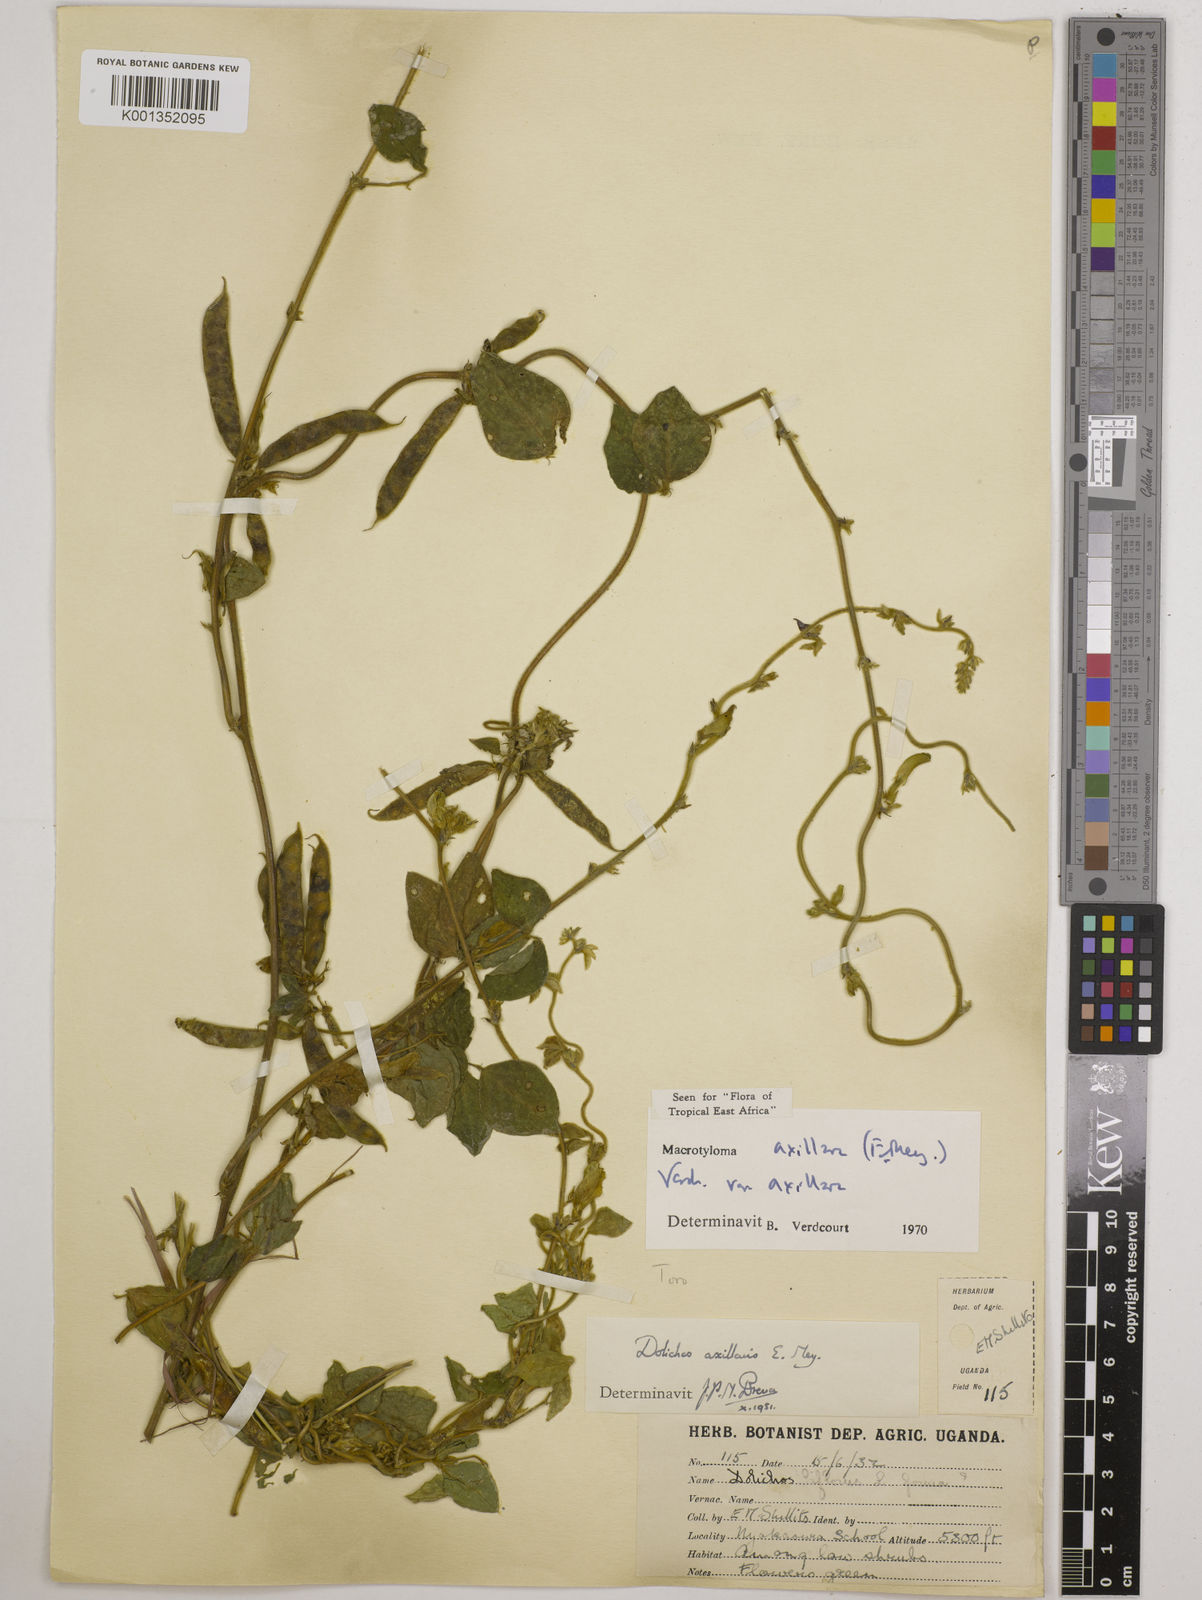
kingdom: Plantae
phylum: Tracheophyta
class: Magnoliopsida
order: Fabales
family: Fabaceae
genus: Macrotyloma
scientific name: Macrotyloma axillare
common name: Perennial horsegram
